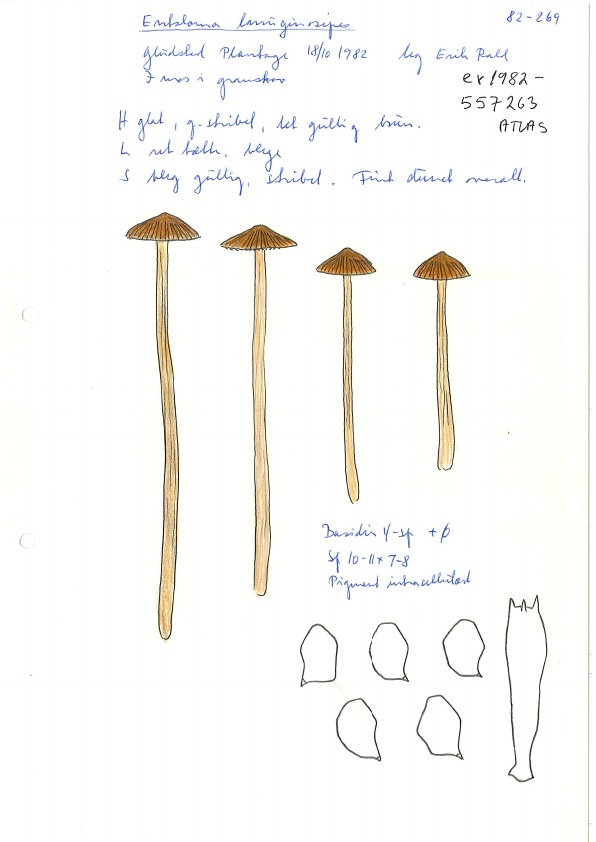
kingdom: Fungi
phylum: Basidiomycota
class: Agaricomycetes
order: Agaricales
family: Entolomataceae
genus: Entoloma
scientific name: Entoloma cuneatum
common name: dunstokket rødblad
